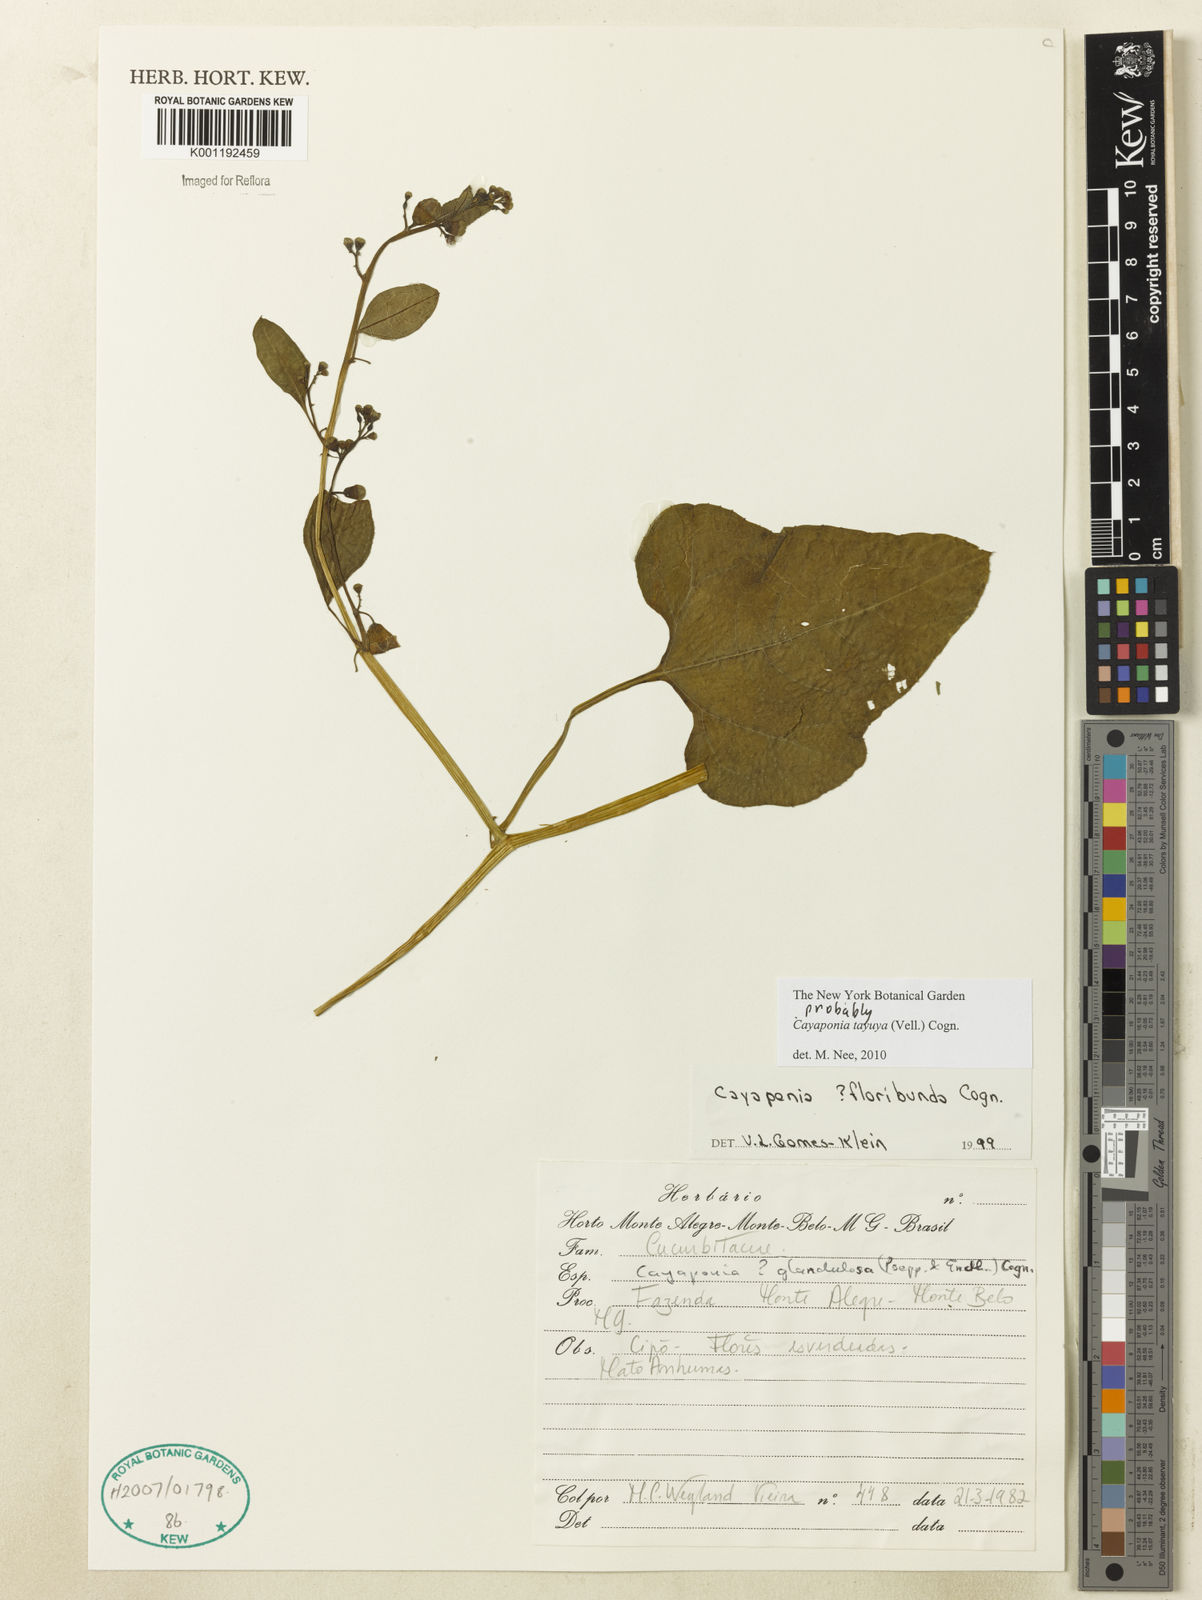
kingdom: Plantae
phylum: Tracheophyta
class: Magnoliopsida
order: Cucurbitales
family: Cucurbitaceae
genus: Cayaponia
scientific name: Cayaponia tayuya
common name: Tayuya
